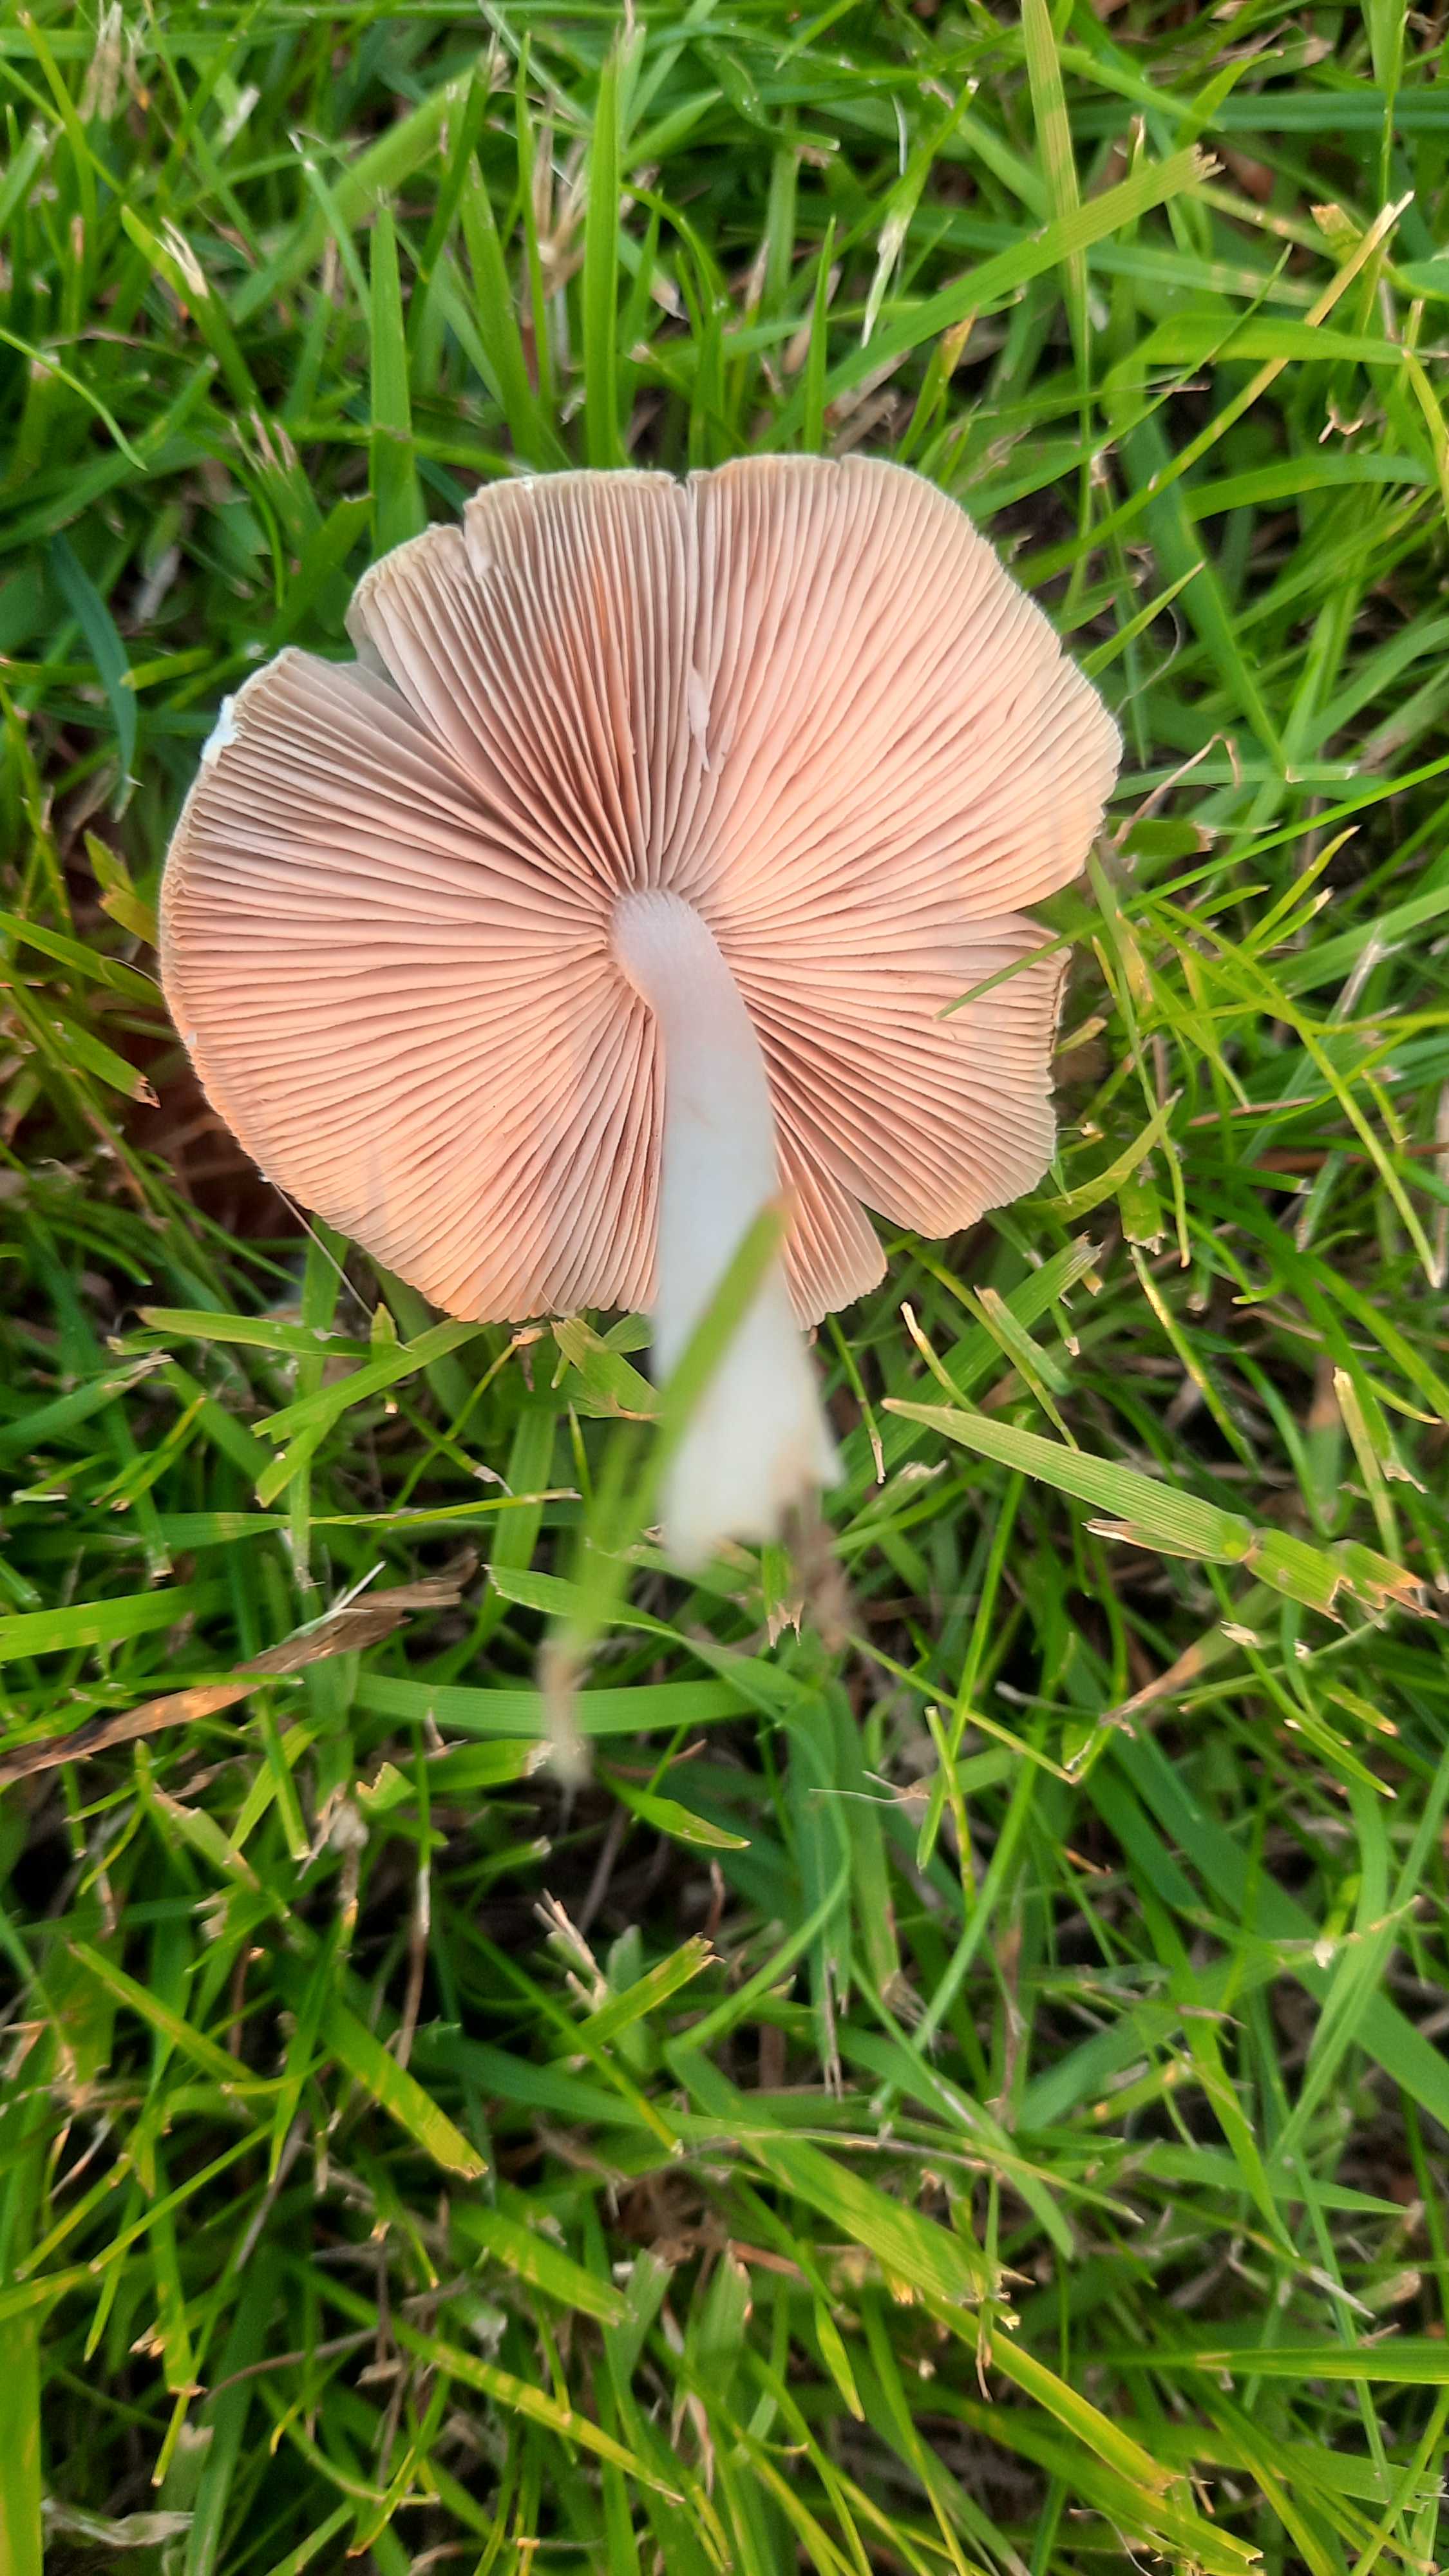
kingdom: Fungi
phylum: Basidiomycota
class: Agaricomycetes
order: Agaricales
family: Psathyrellaceae
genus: Candolleomyces
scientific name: Candolleomyces candolleanus
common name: Candolles mørkhat
